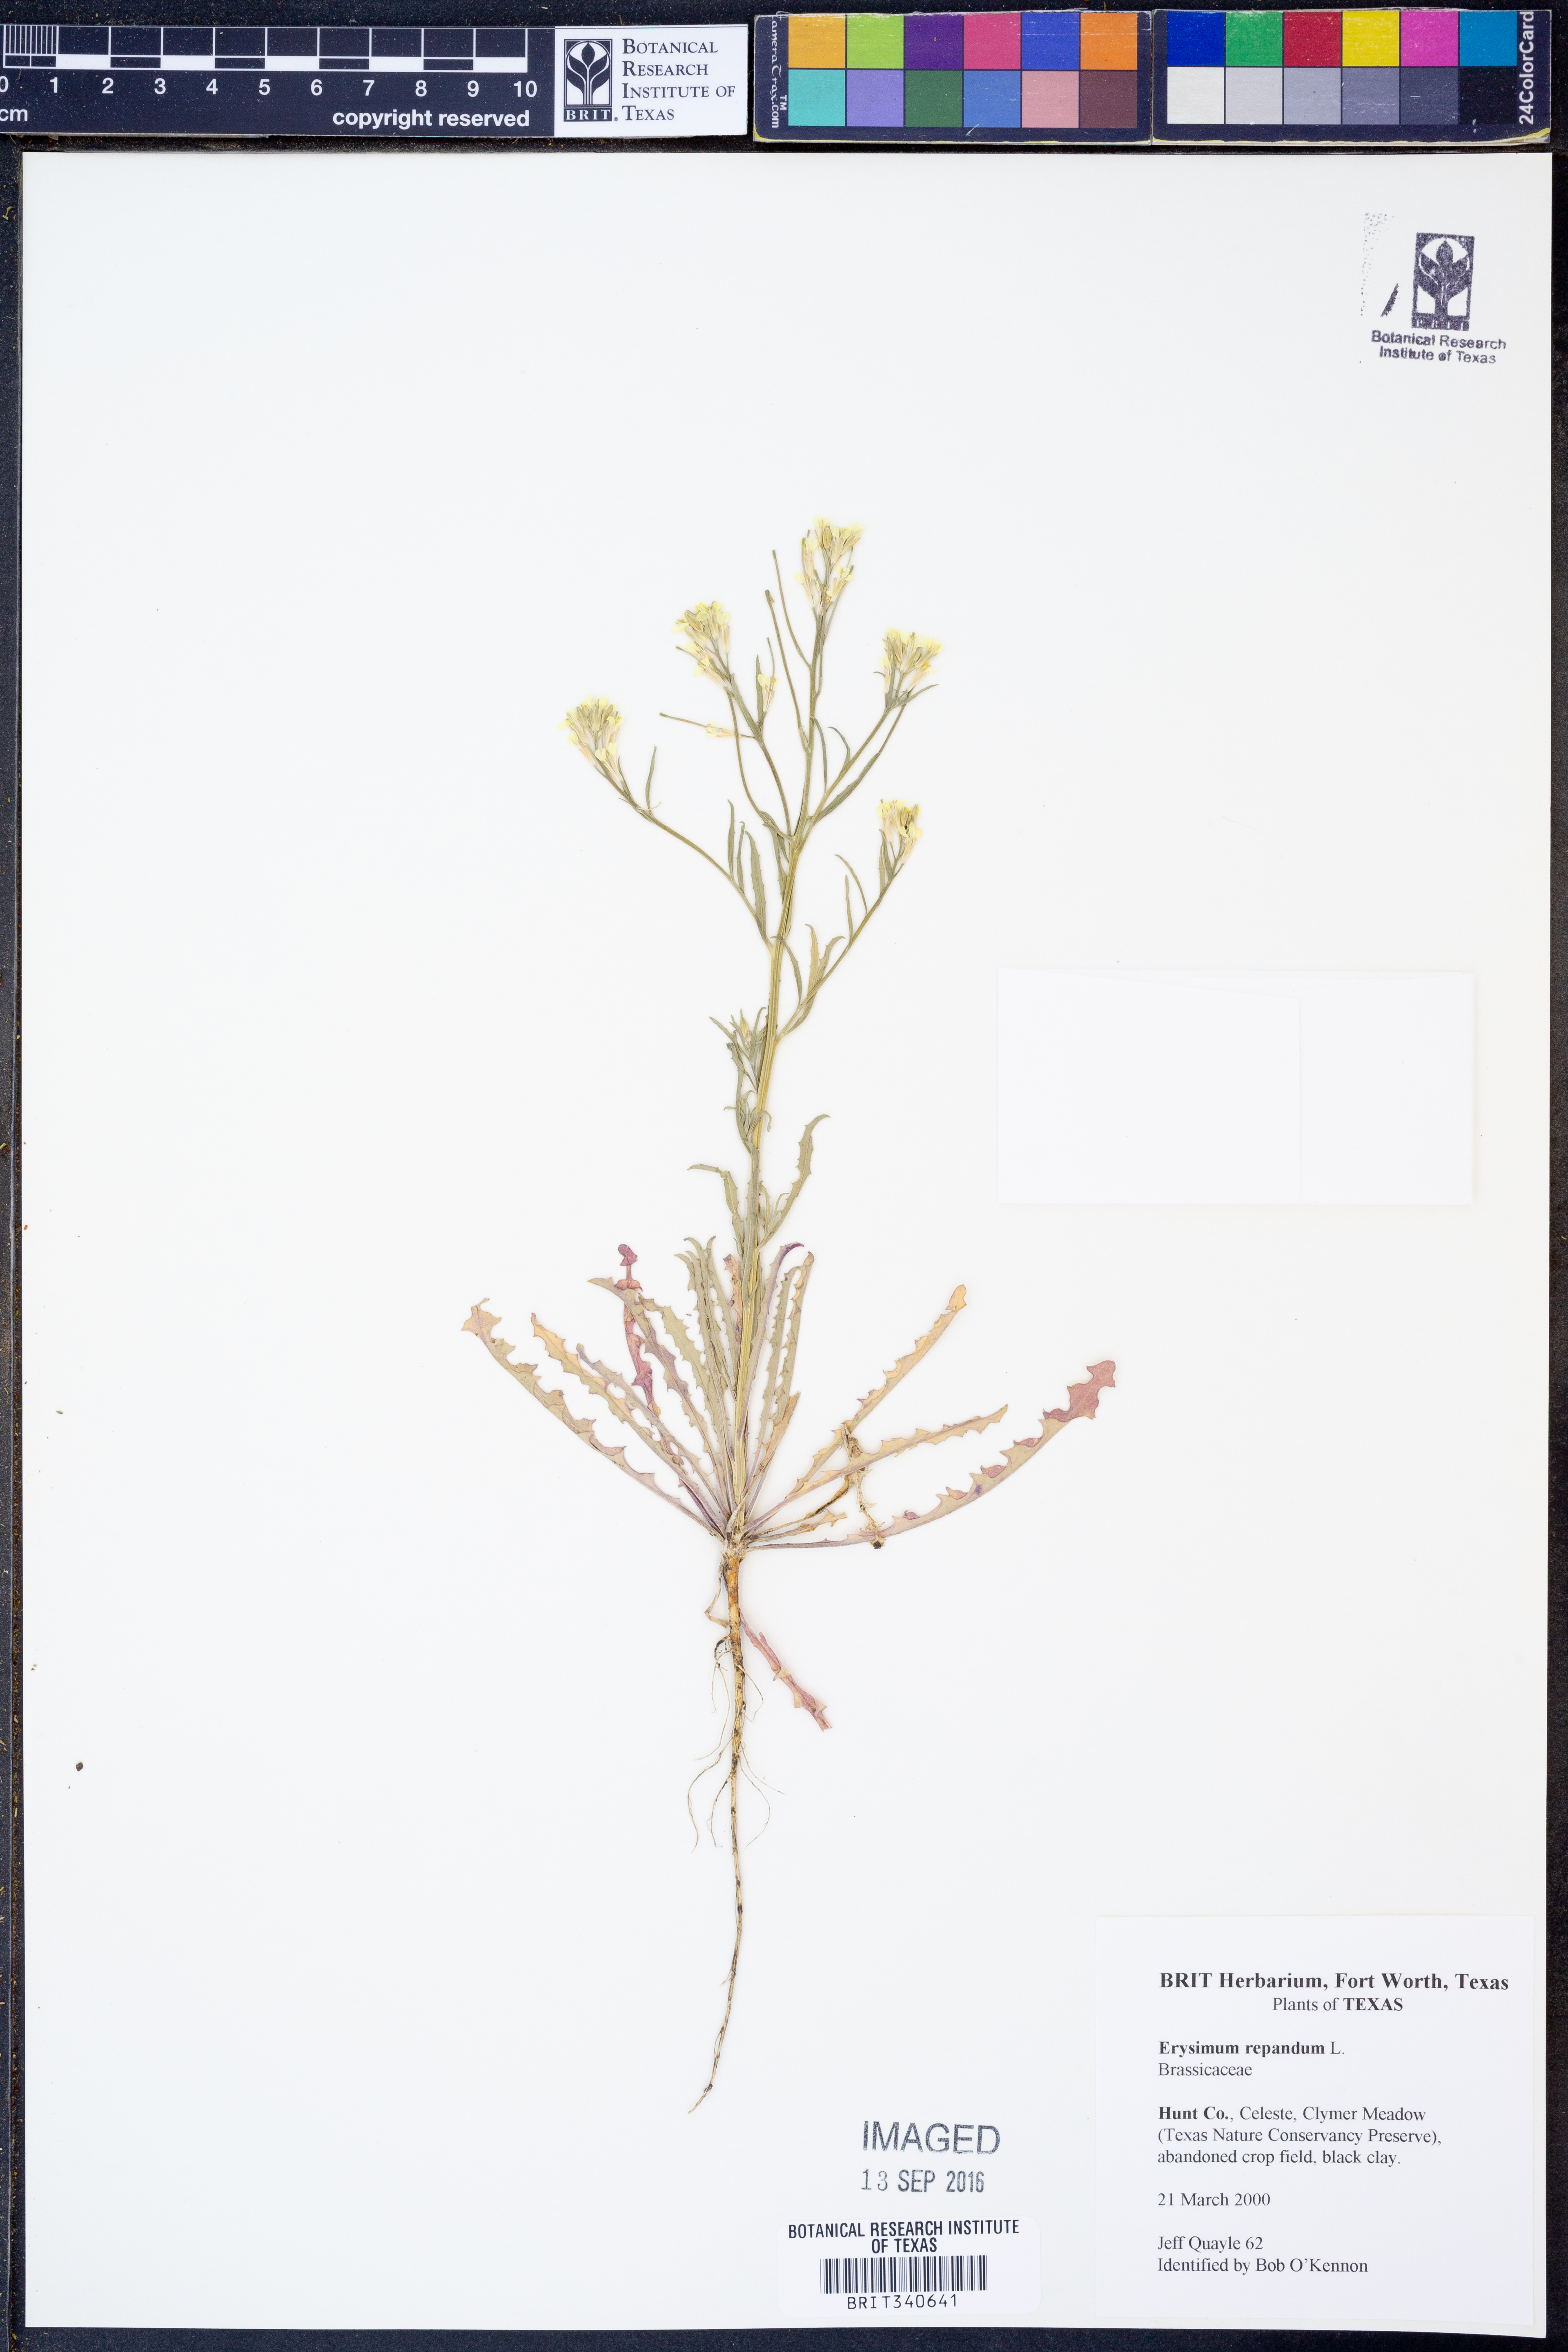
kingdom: Plantae
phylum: Tracheophyta
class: Magnoliopsida
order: Brassicales
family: Brassicaceae
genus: Erysimum
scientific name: Erysimum repandum
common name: Spreading wallflower
